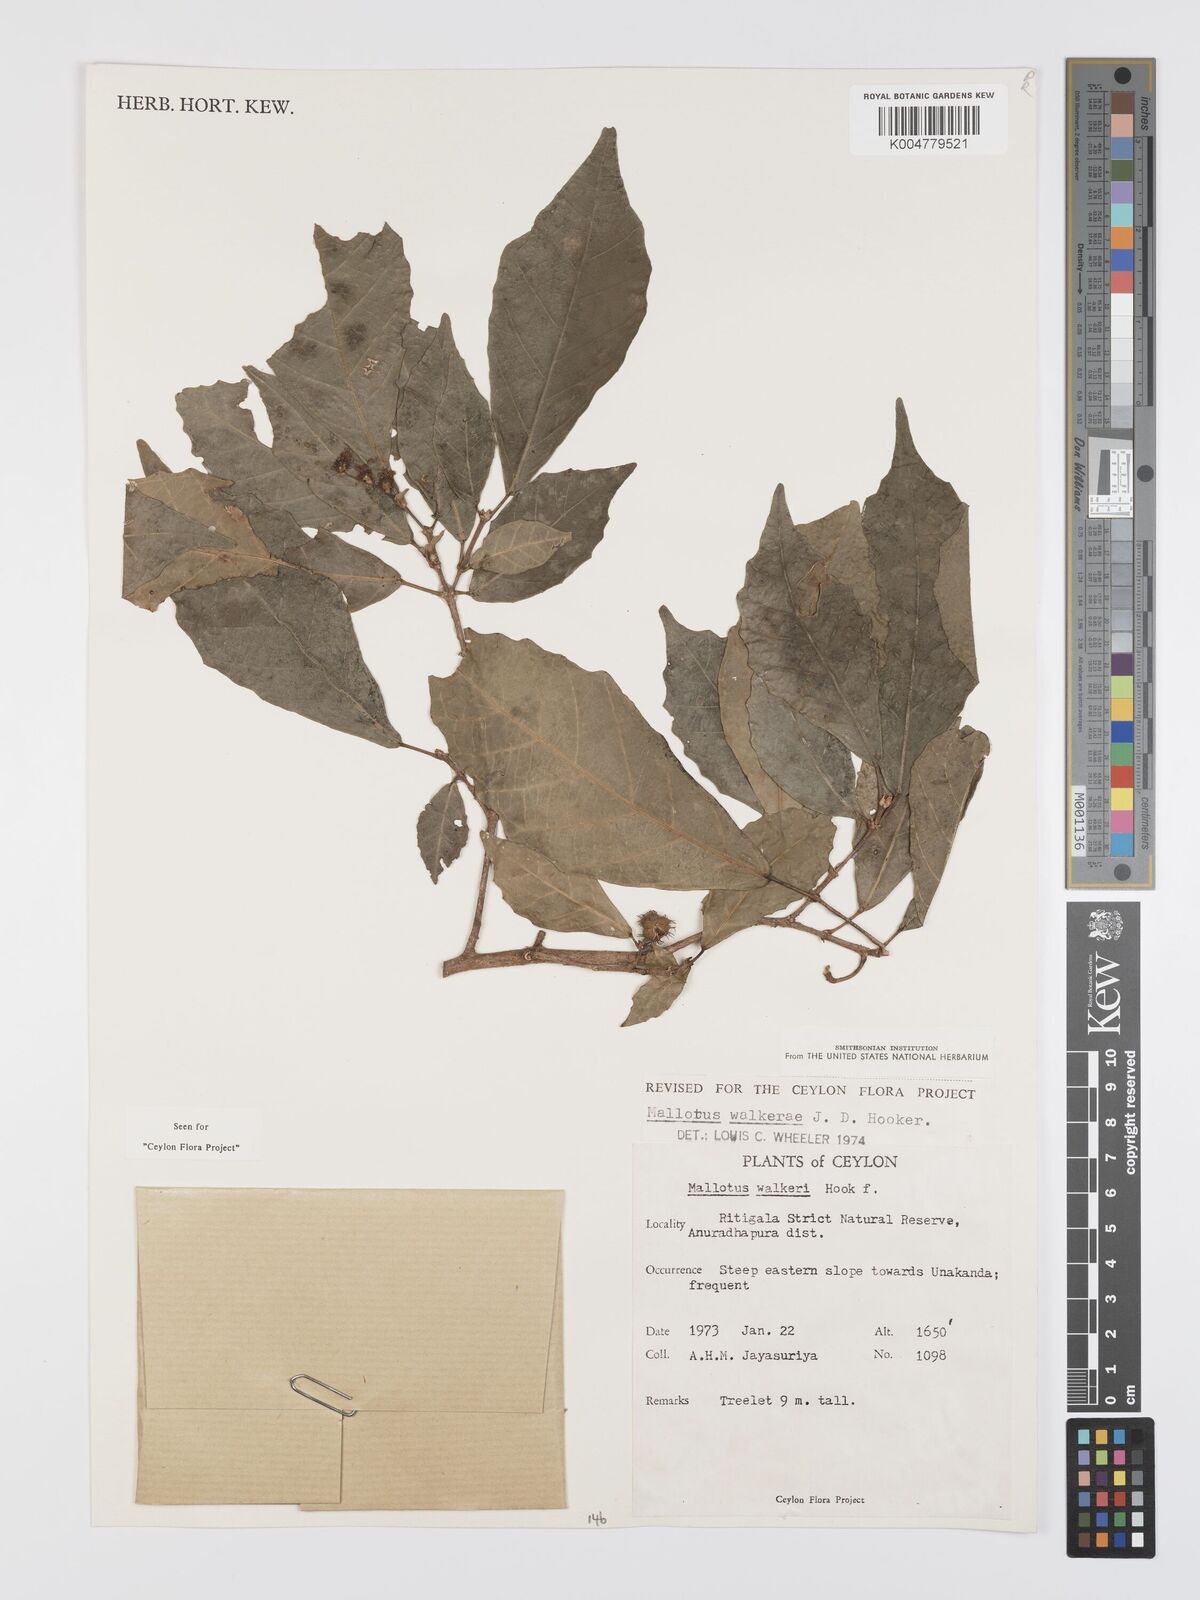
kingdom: Plantae
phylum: Tracheophyta
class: Magnoliopsida
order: Malpighiales
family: Euphorbiaceae
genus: Mallotus
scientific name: Mallotus resinosus
